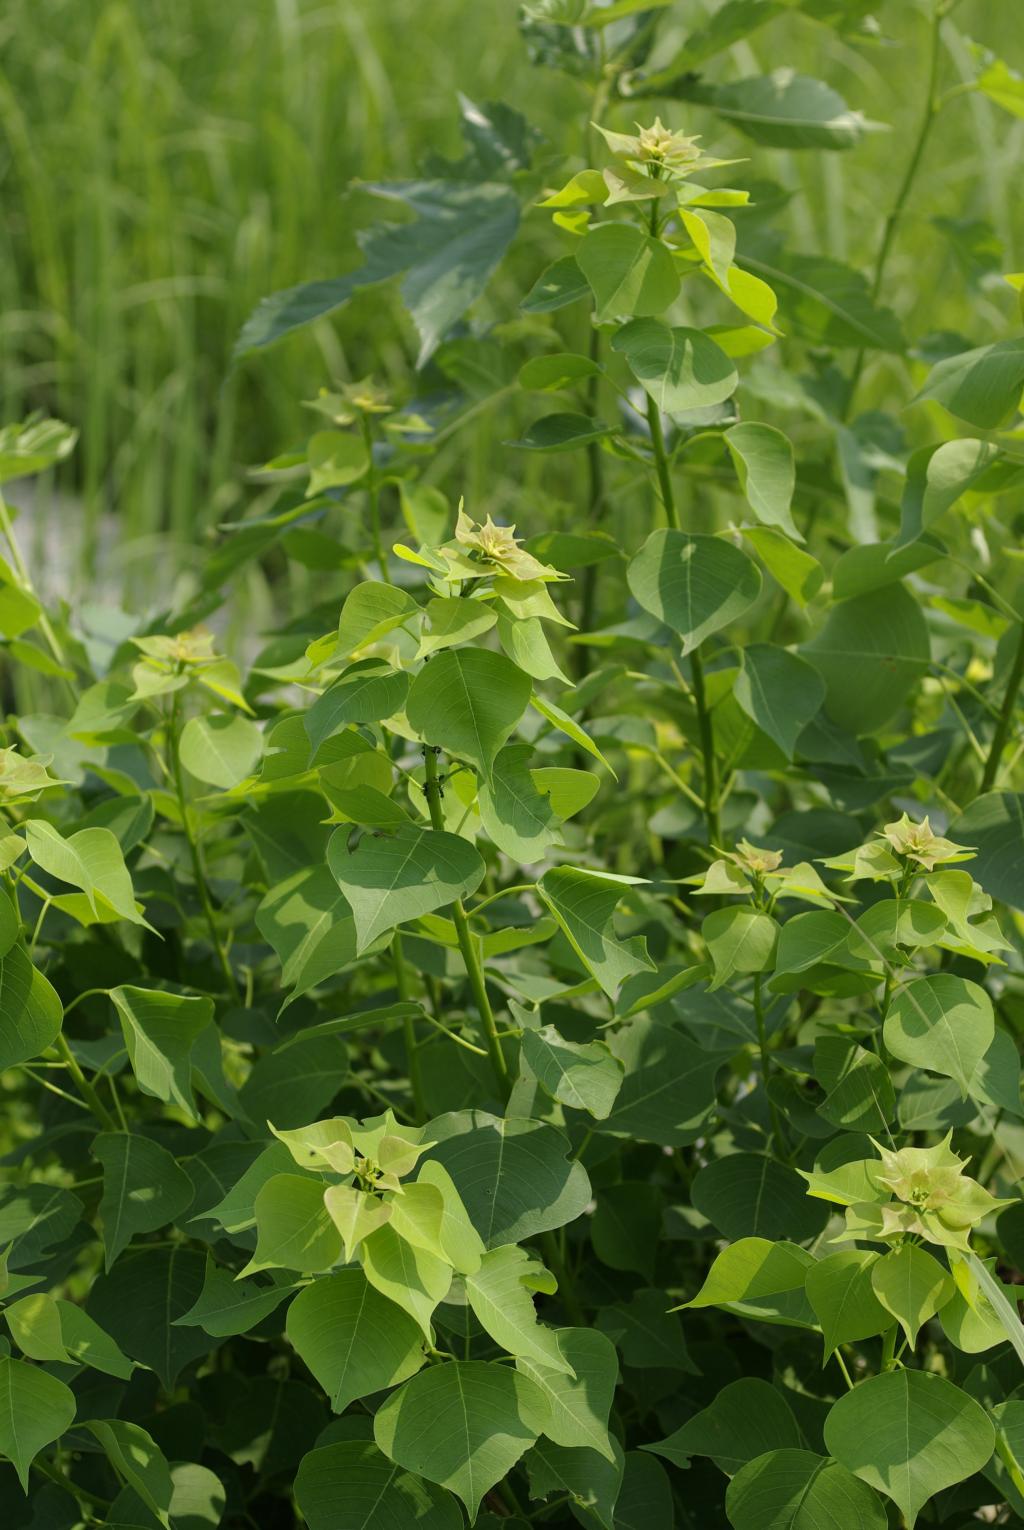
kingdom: Plantae
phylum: Tracheophyta
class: Magnoliopsida
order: Malpighiales
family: Euphorbiaceae
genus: Triadica
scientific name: Triadica sebifera
